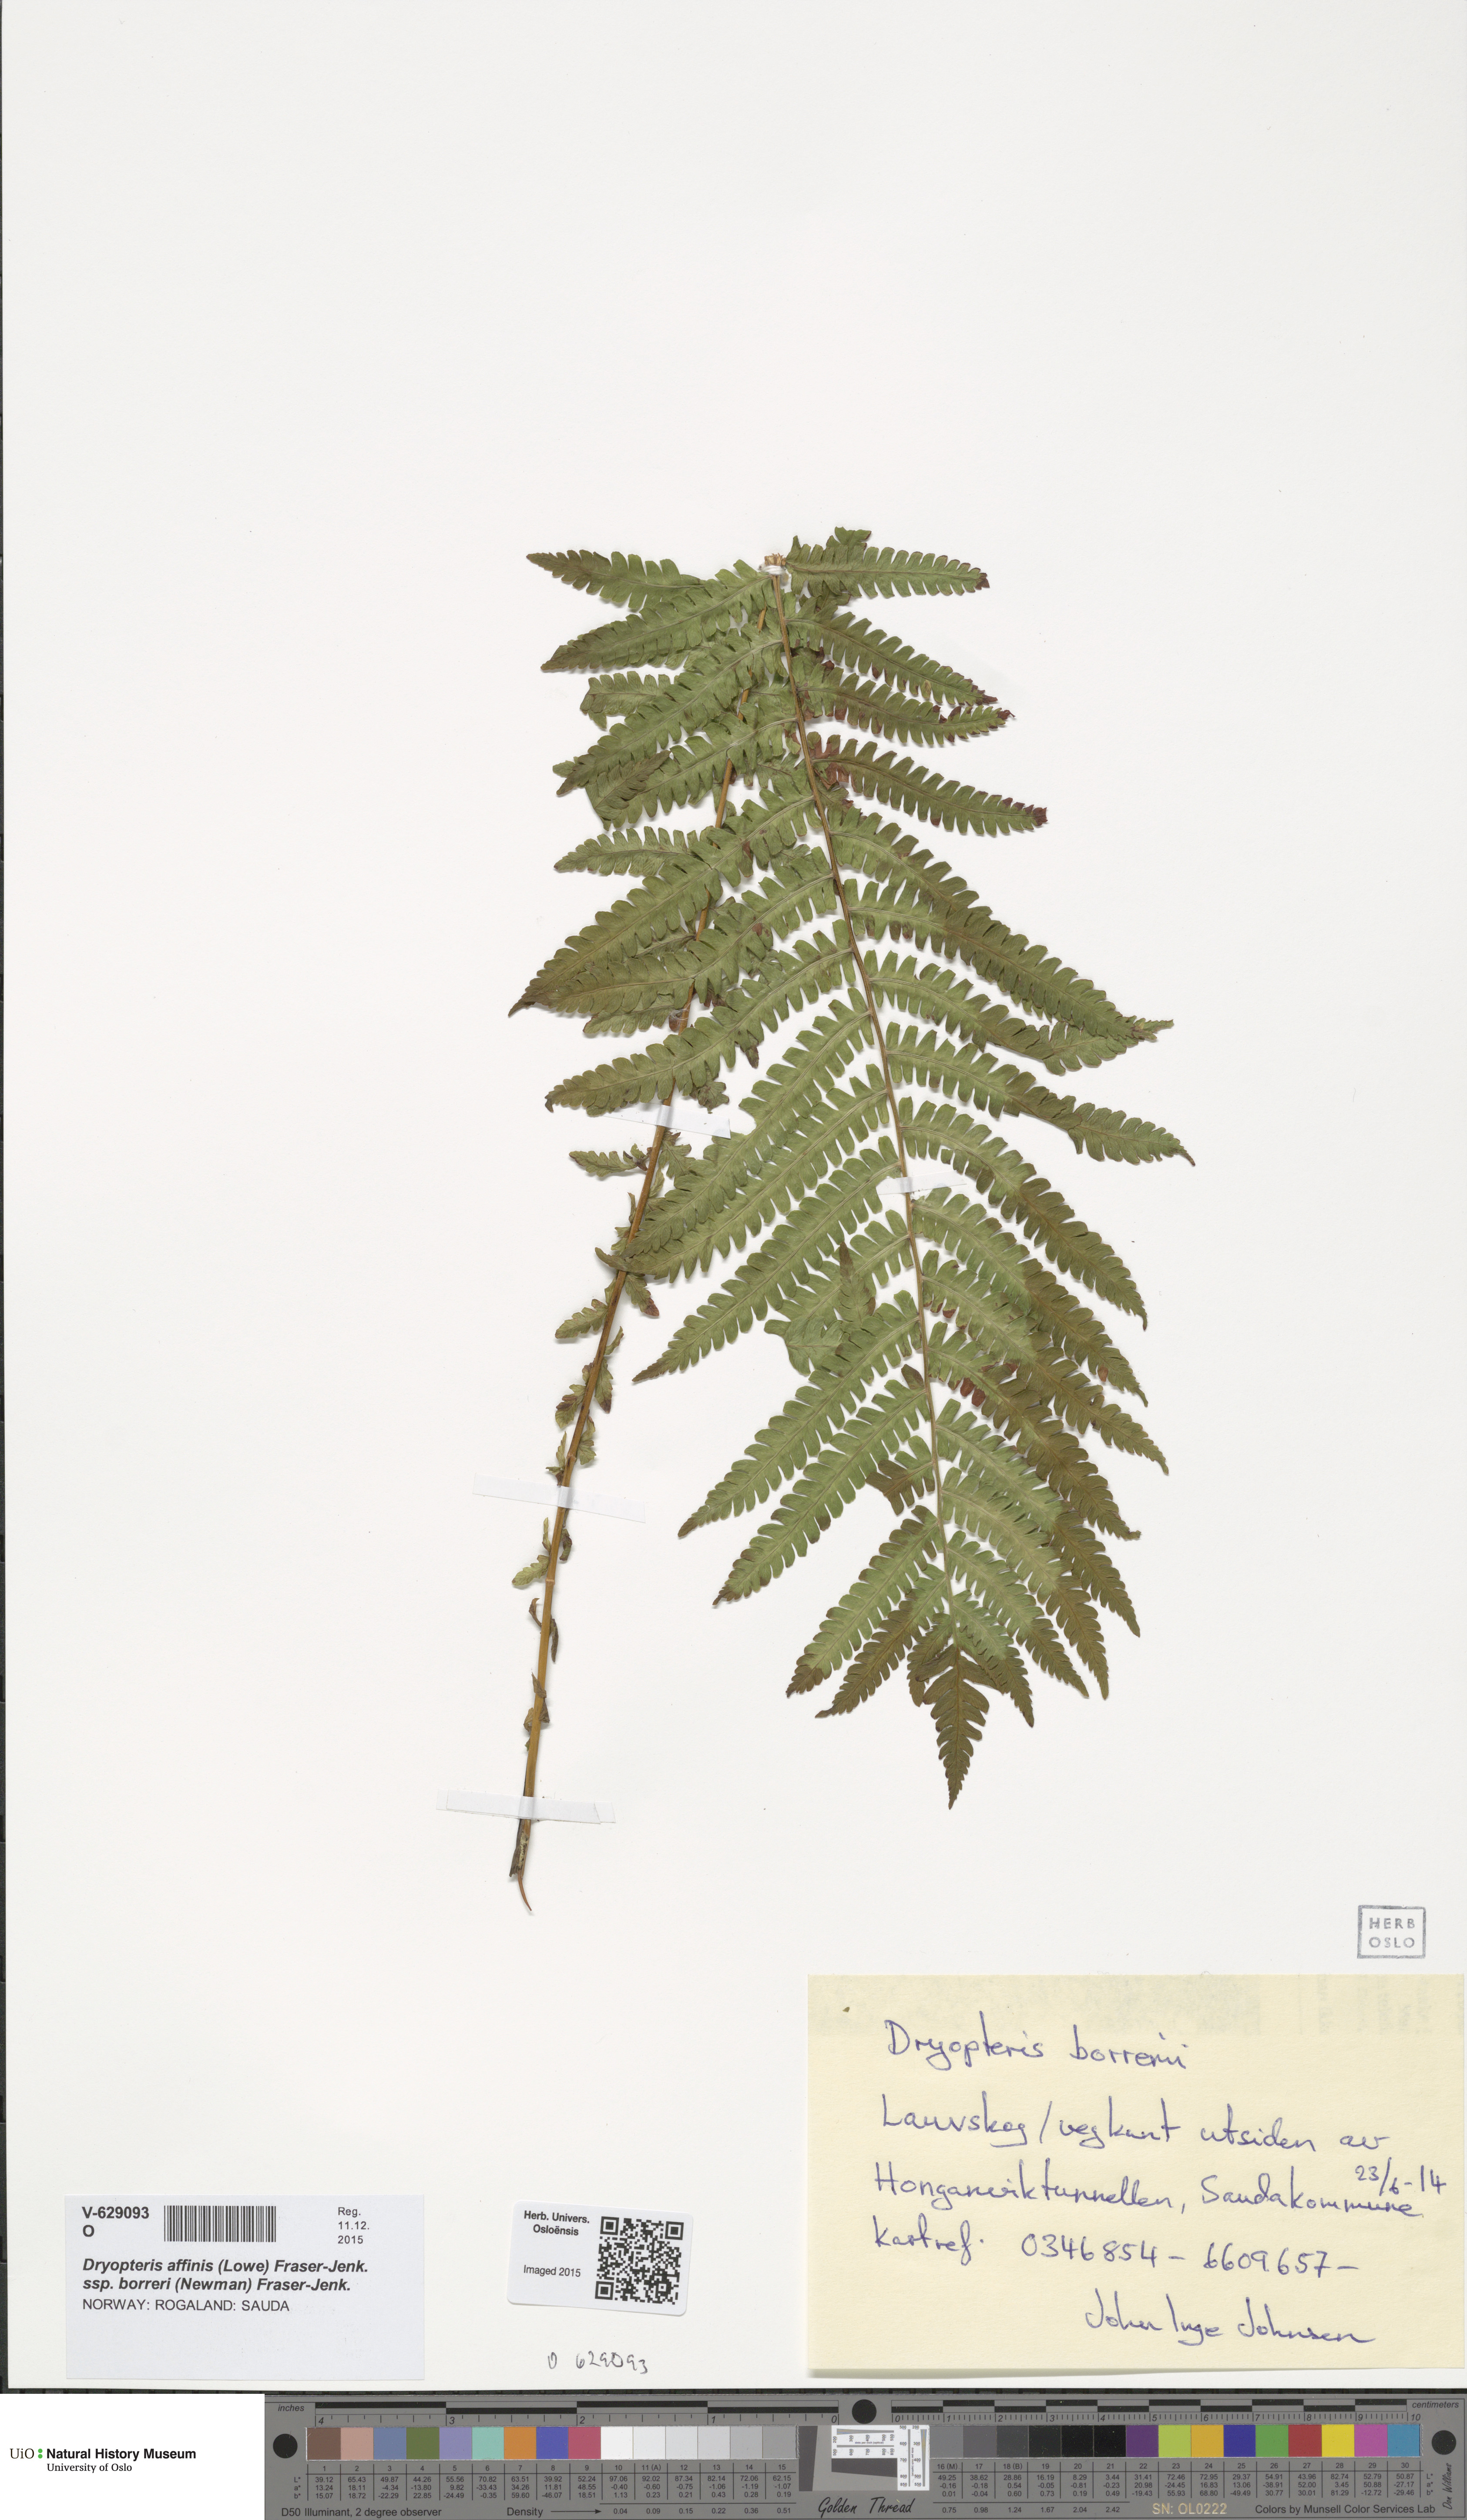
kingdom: Plantae
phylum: Tracheophyta
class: Polypodiopsida
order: Polypodiales
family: Dryopteridaceae
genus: Dryopteris
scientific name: Dryopteris borreri
